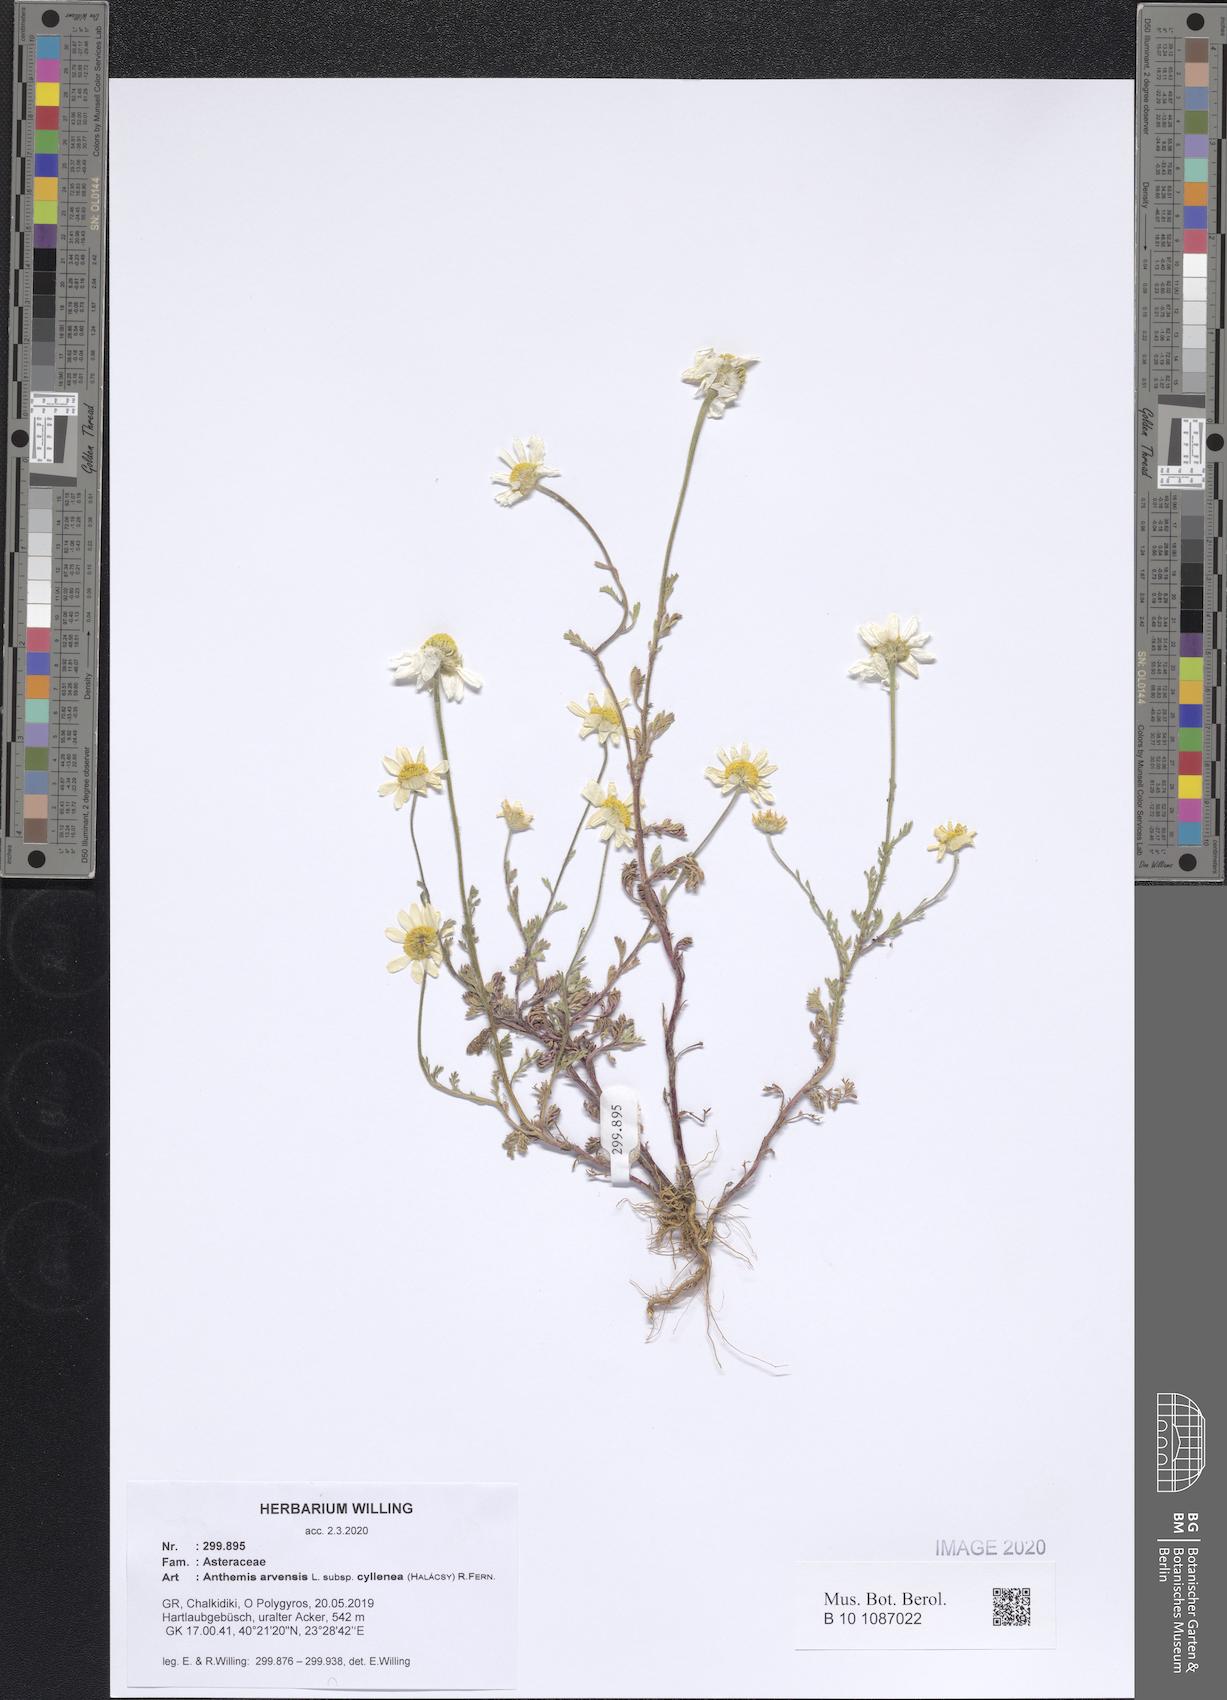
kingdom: Plantae
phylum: Tracheophyta
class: Magnoliopsida
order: Asterales
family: Asteraceae
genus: Anthemis
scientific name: Anthemis arvensis
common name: Corn chamomile
